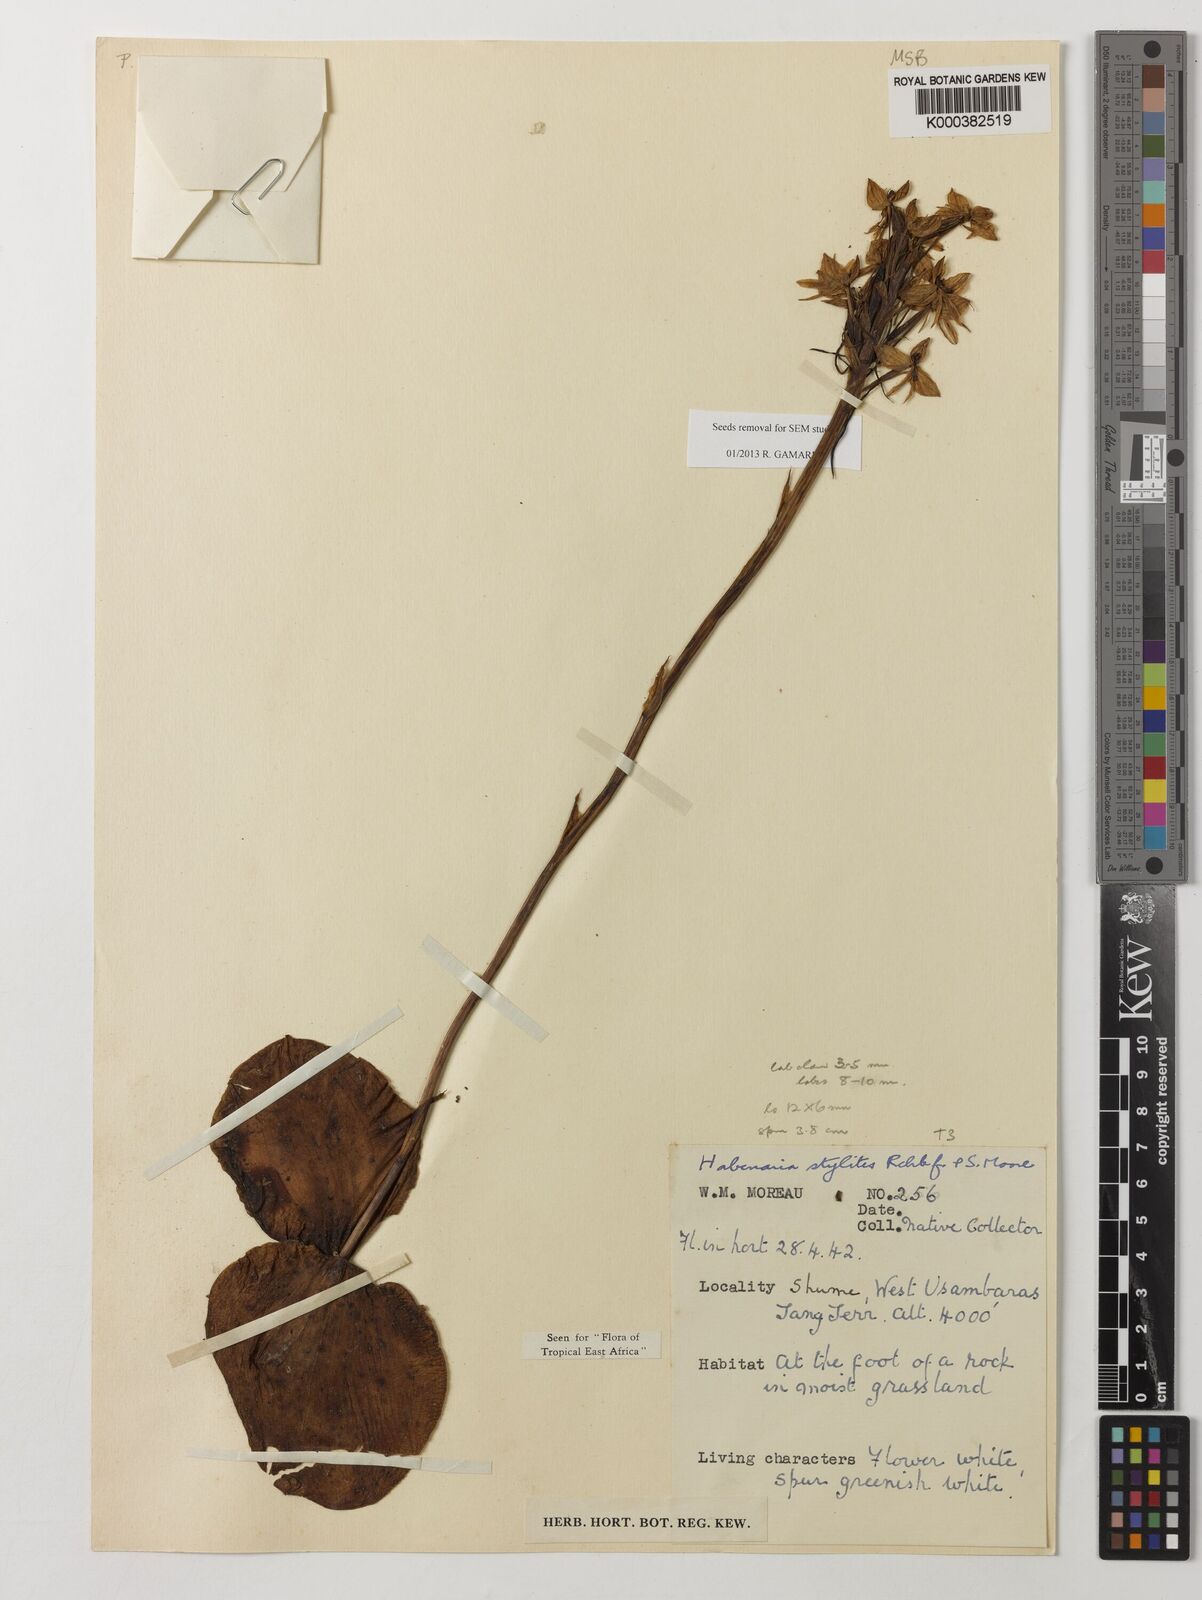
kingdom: Plantae
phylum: Tracheophyta
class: Liliopsida
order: Asparagales
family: Orchidaceae
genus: Habenaria
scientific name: Habenaria stylites
